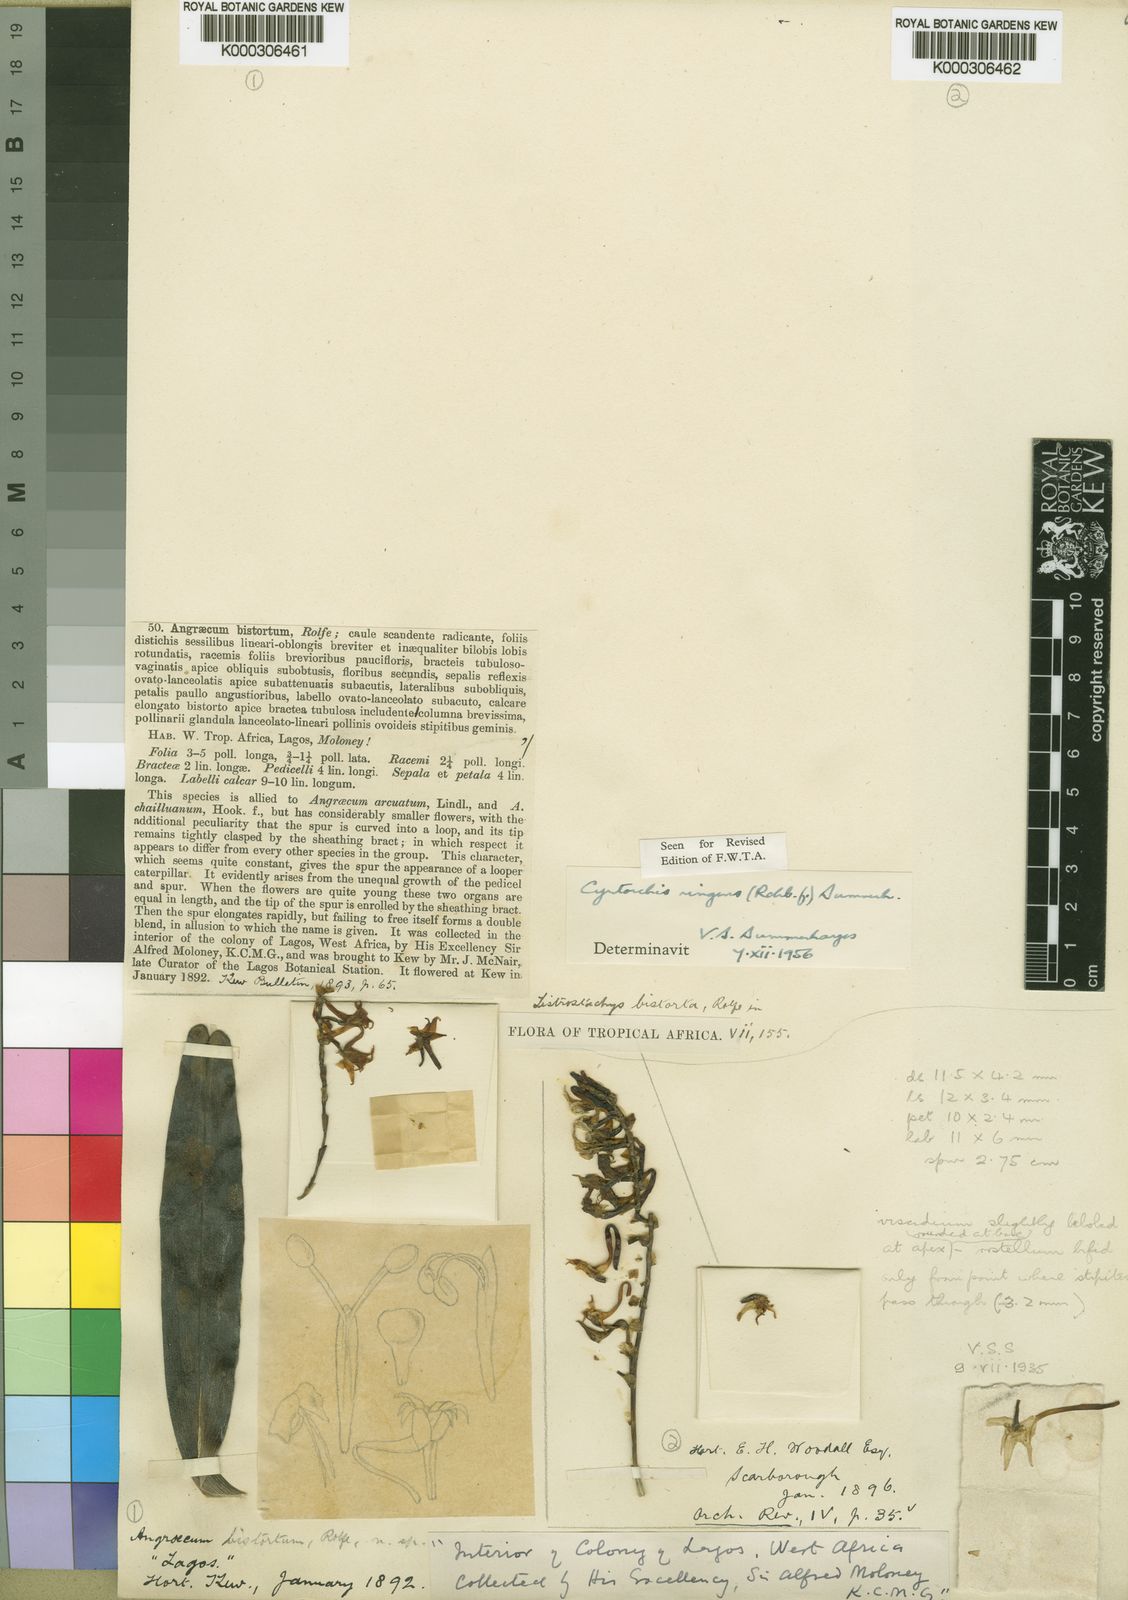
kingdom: Plantae
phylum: Tracheophyta
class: Liliopsida
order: Asparagales
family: Orchidaceae
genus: Cyrtorchis
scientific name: Cyrtorchis ringens
